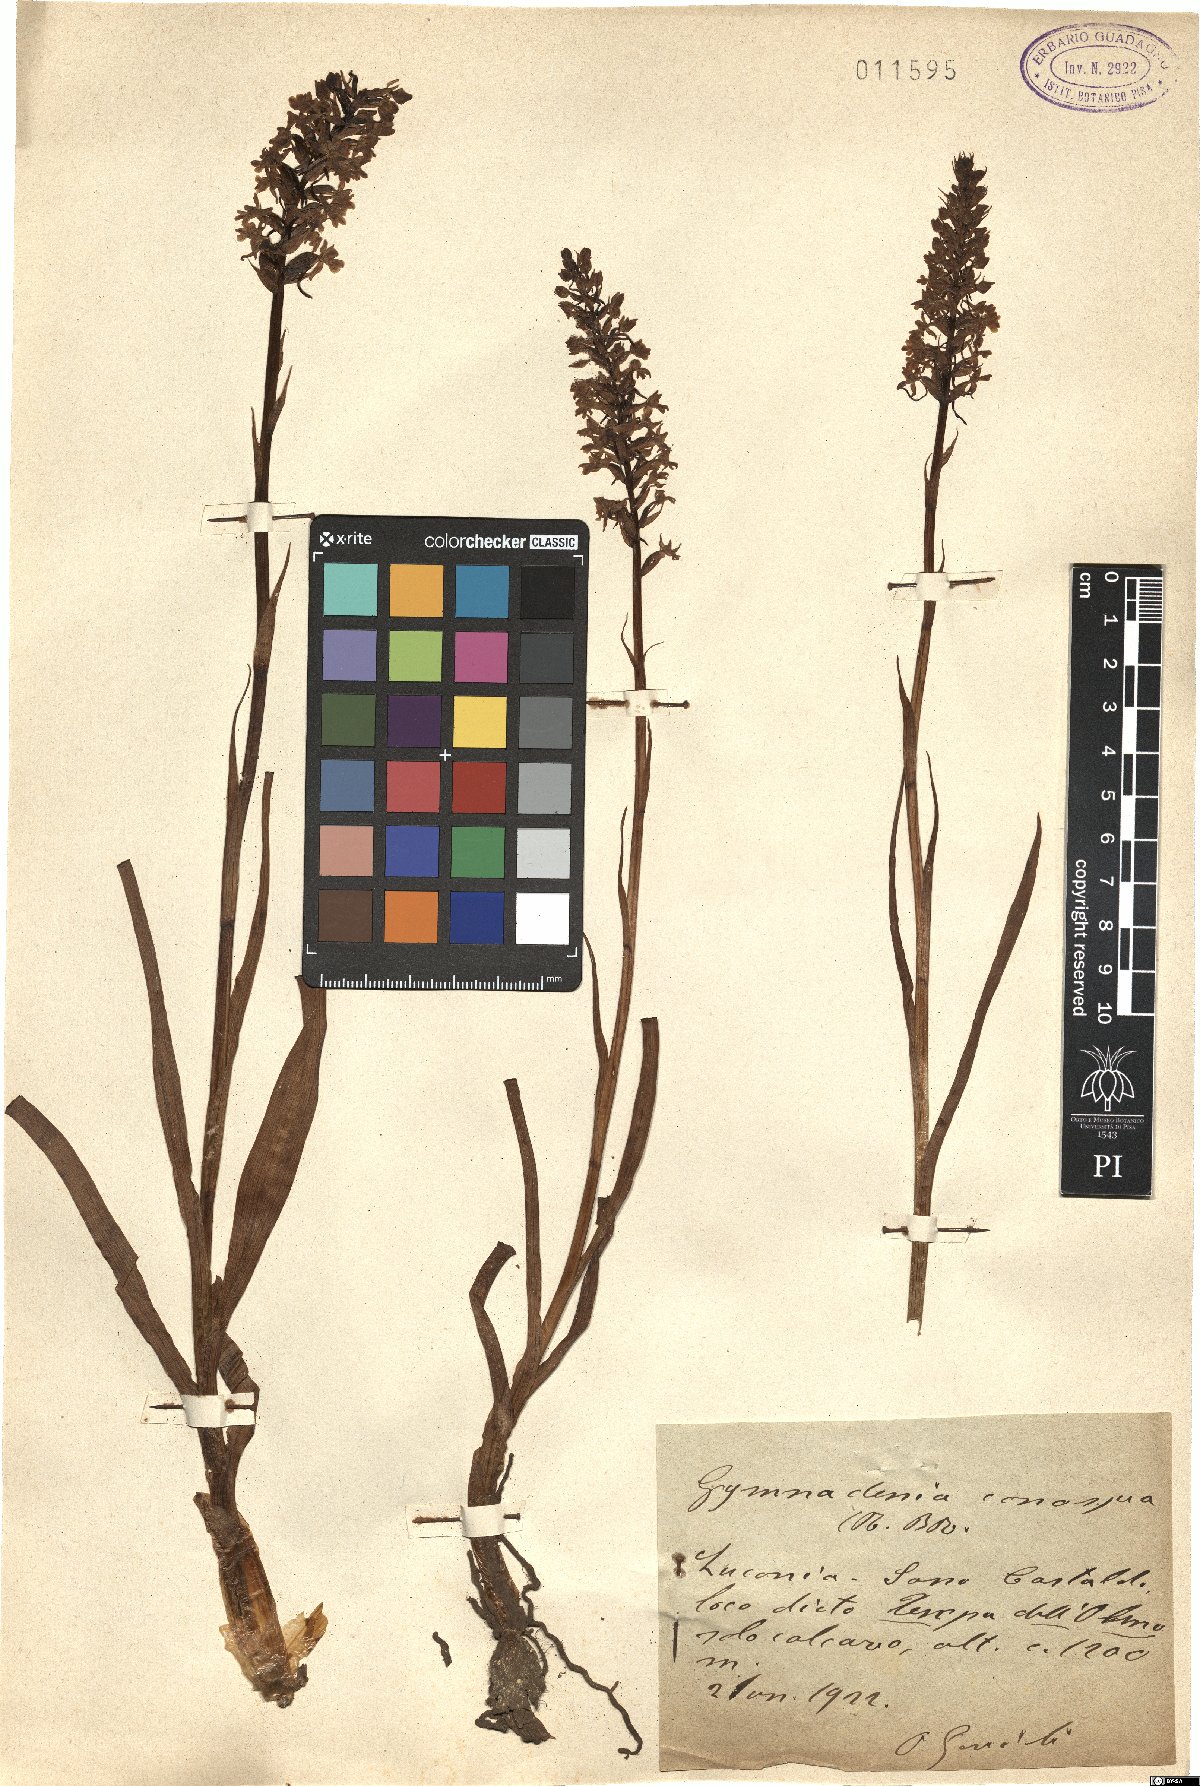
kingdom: Plantae
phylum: Tracheophyta
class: Liliopsida
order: Asparagales
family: Orchidaceae
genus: Gymnadenia
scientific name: Gymnadenia conopsea
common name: Fragrant orchid
